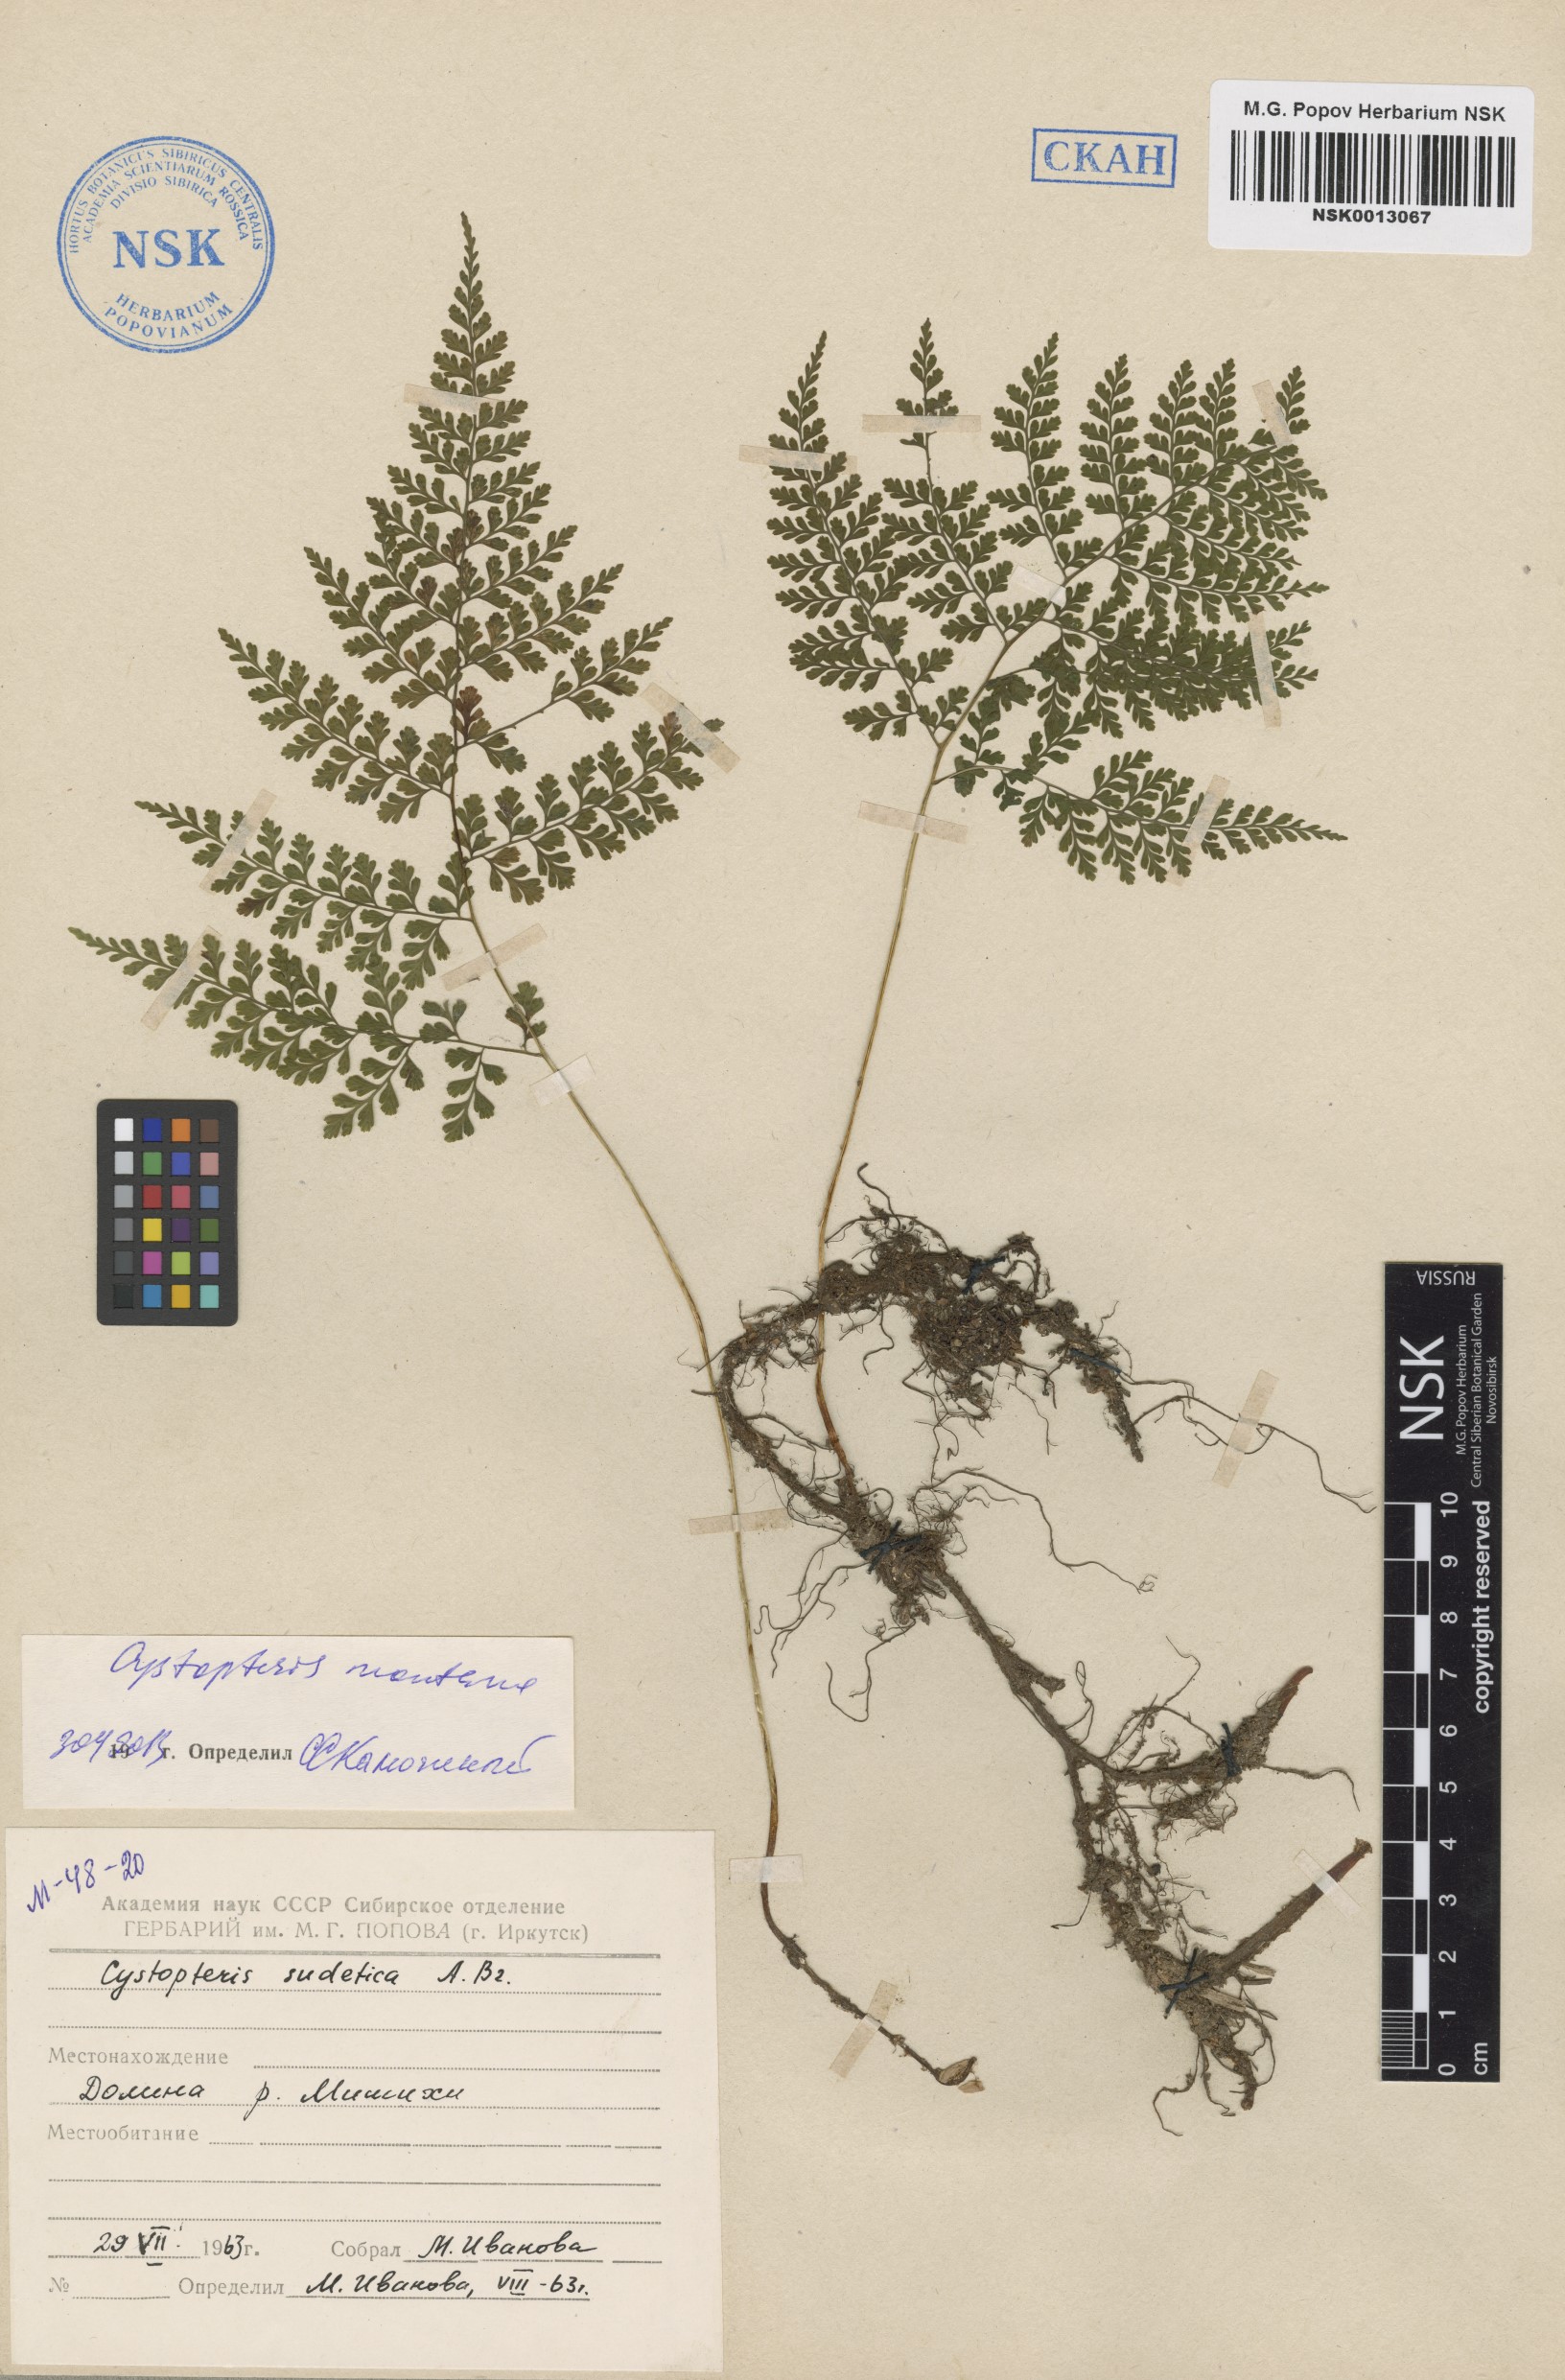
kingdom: Plantae
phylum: Tracheophyta
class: Polypodiopsida
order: Polypodiales
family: Cystopteridaceae
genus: Cystopteris
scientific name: Cystopteris montana
